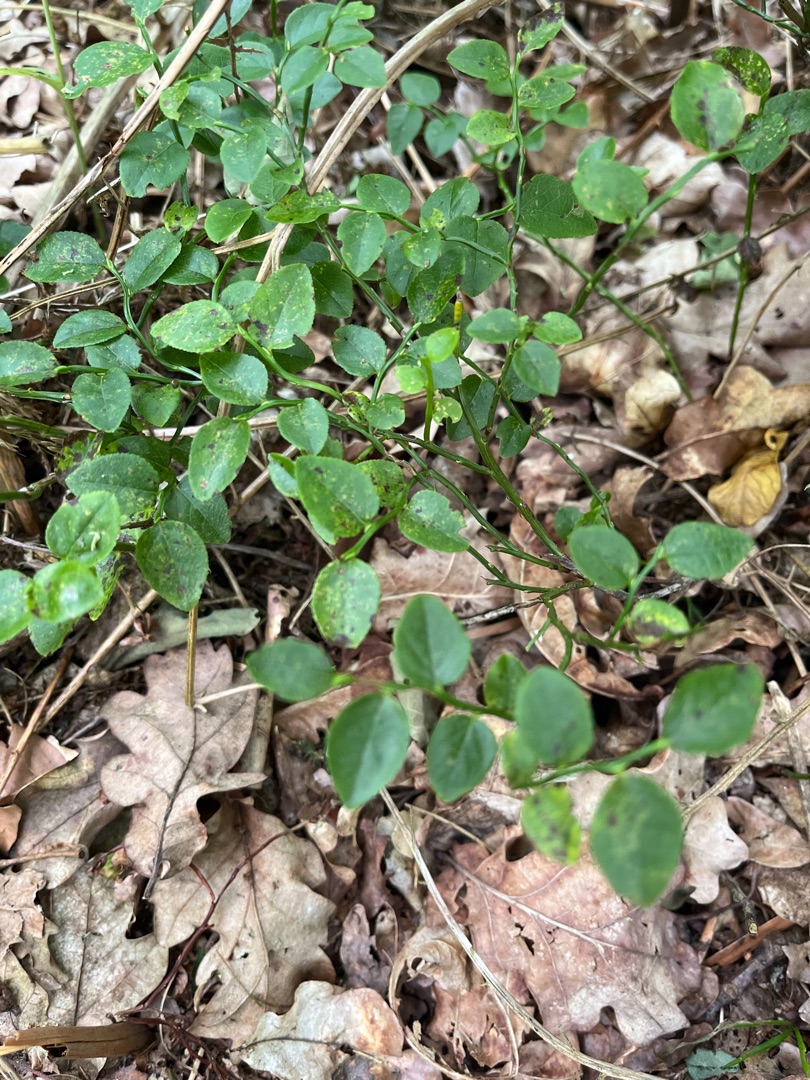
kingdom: Plantae
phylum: Tracheophyta
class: Magnoliopsida
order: Ericales
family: Ericaceae
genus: Vaccinium
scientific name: Vaccinium myrtillus
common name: Blåbær
